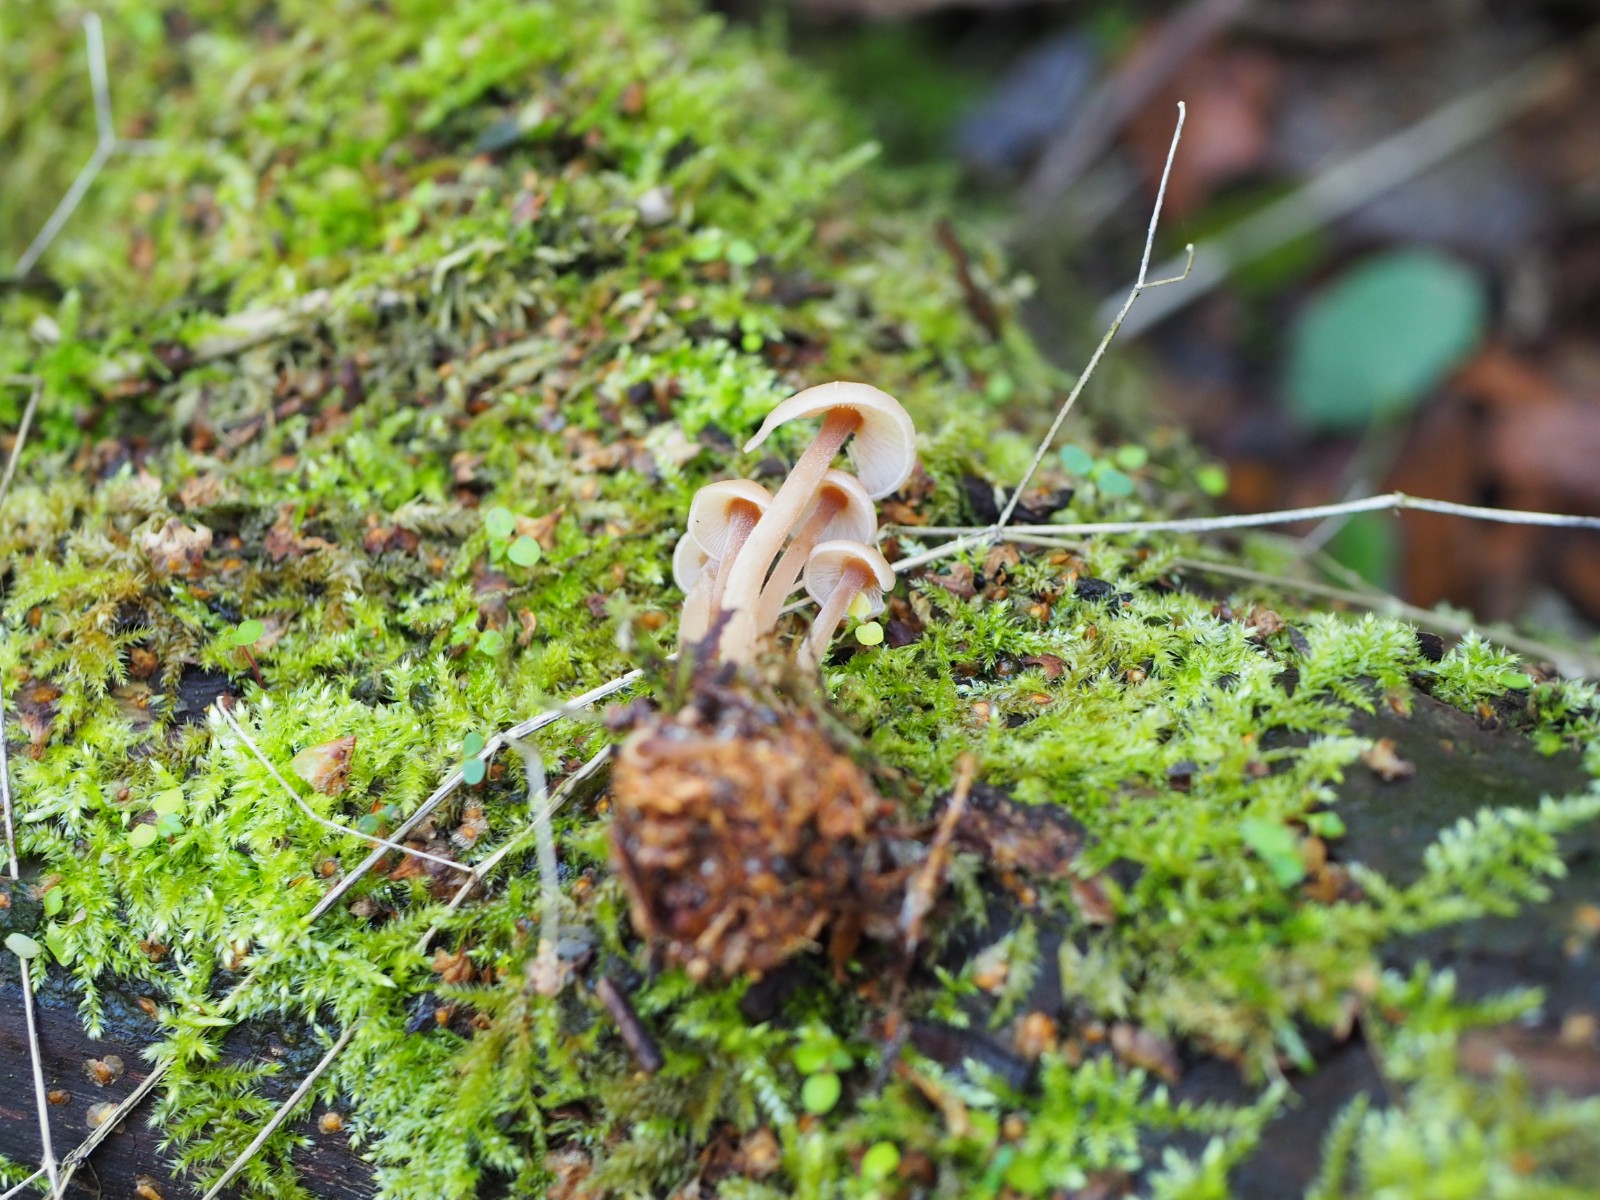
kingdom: Fungi
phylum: Basidiomycota
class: Agaricomycetes
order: Agaricales
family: Omphalotaceae
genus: Collybiopsis
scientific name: Collybiopsis confluens
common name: knippe-fladhat
